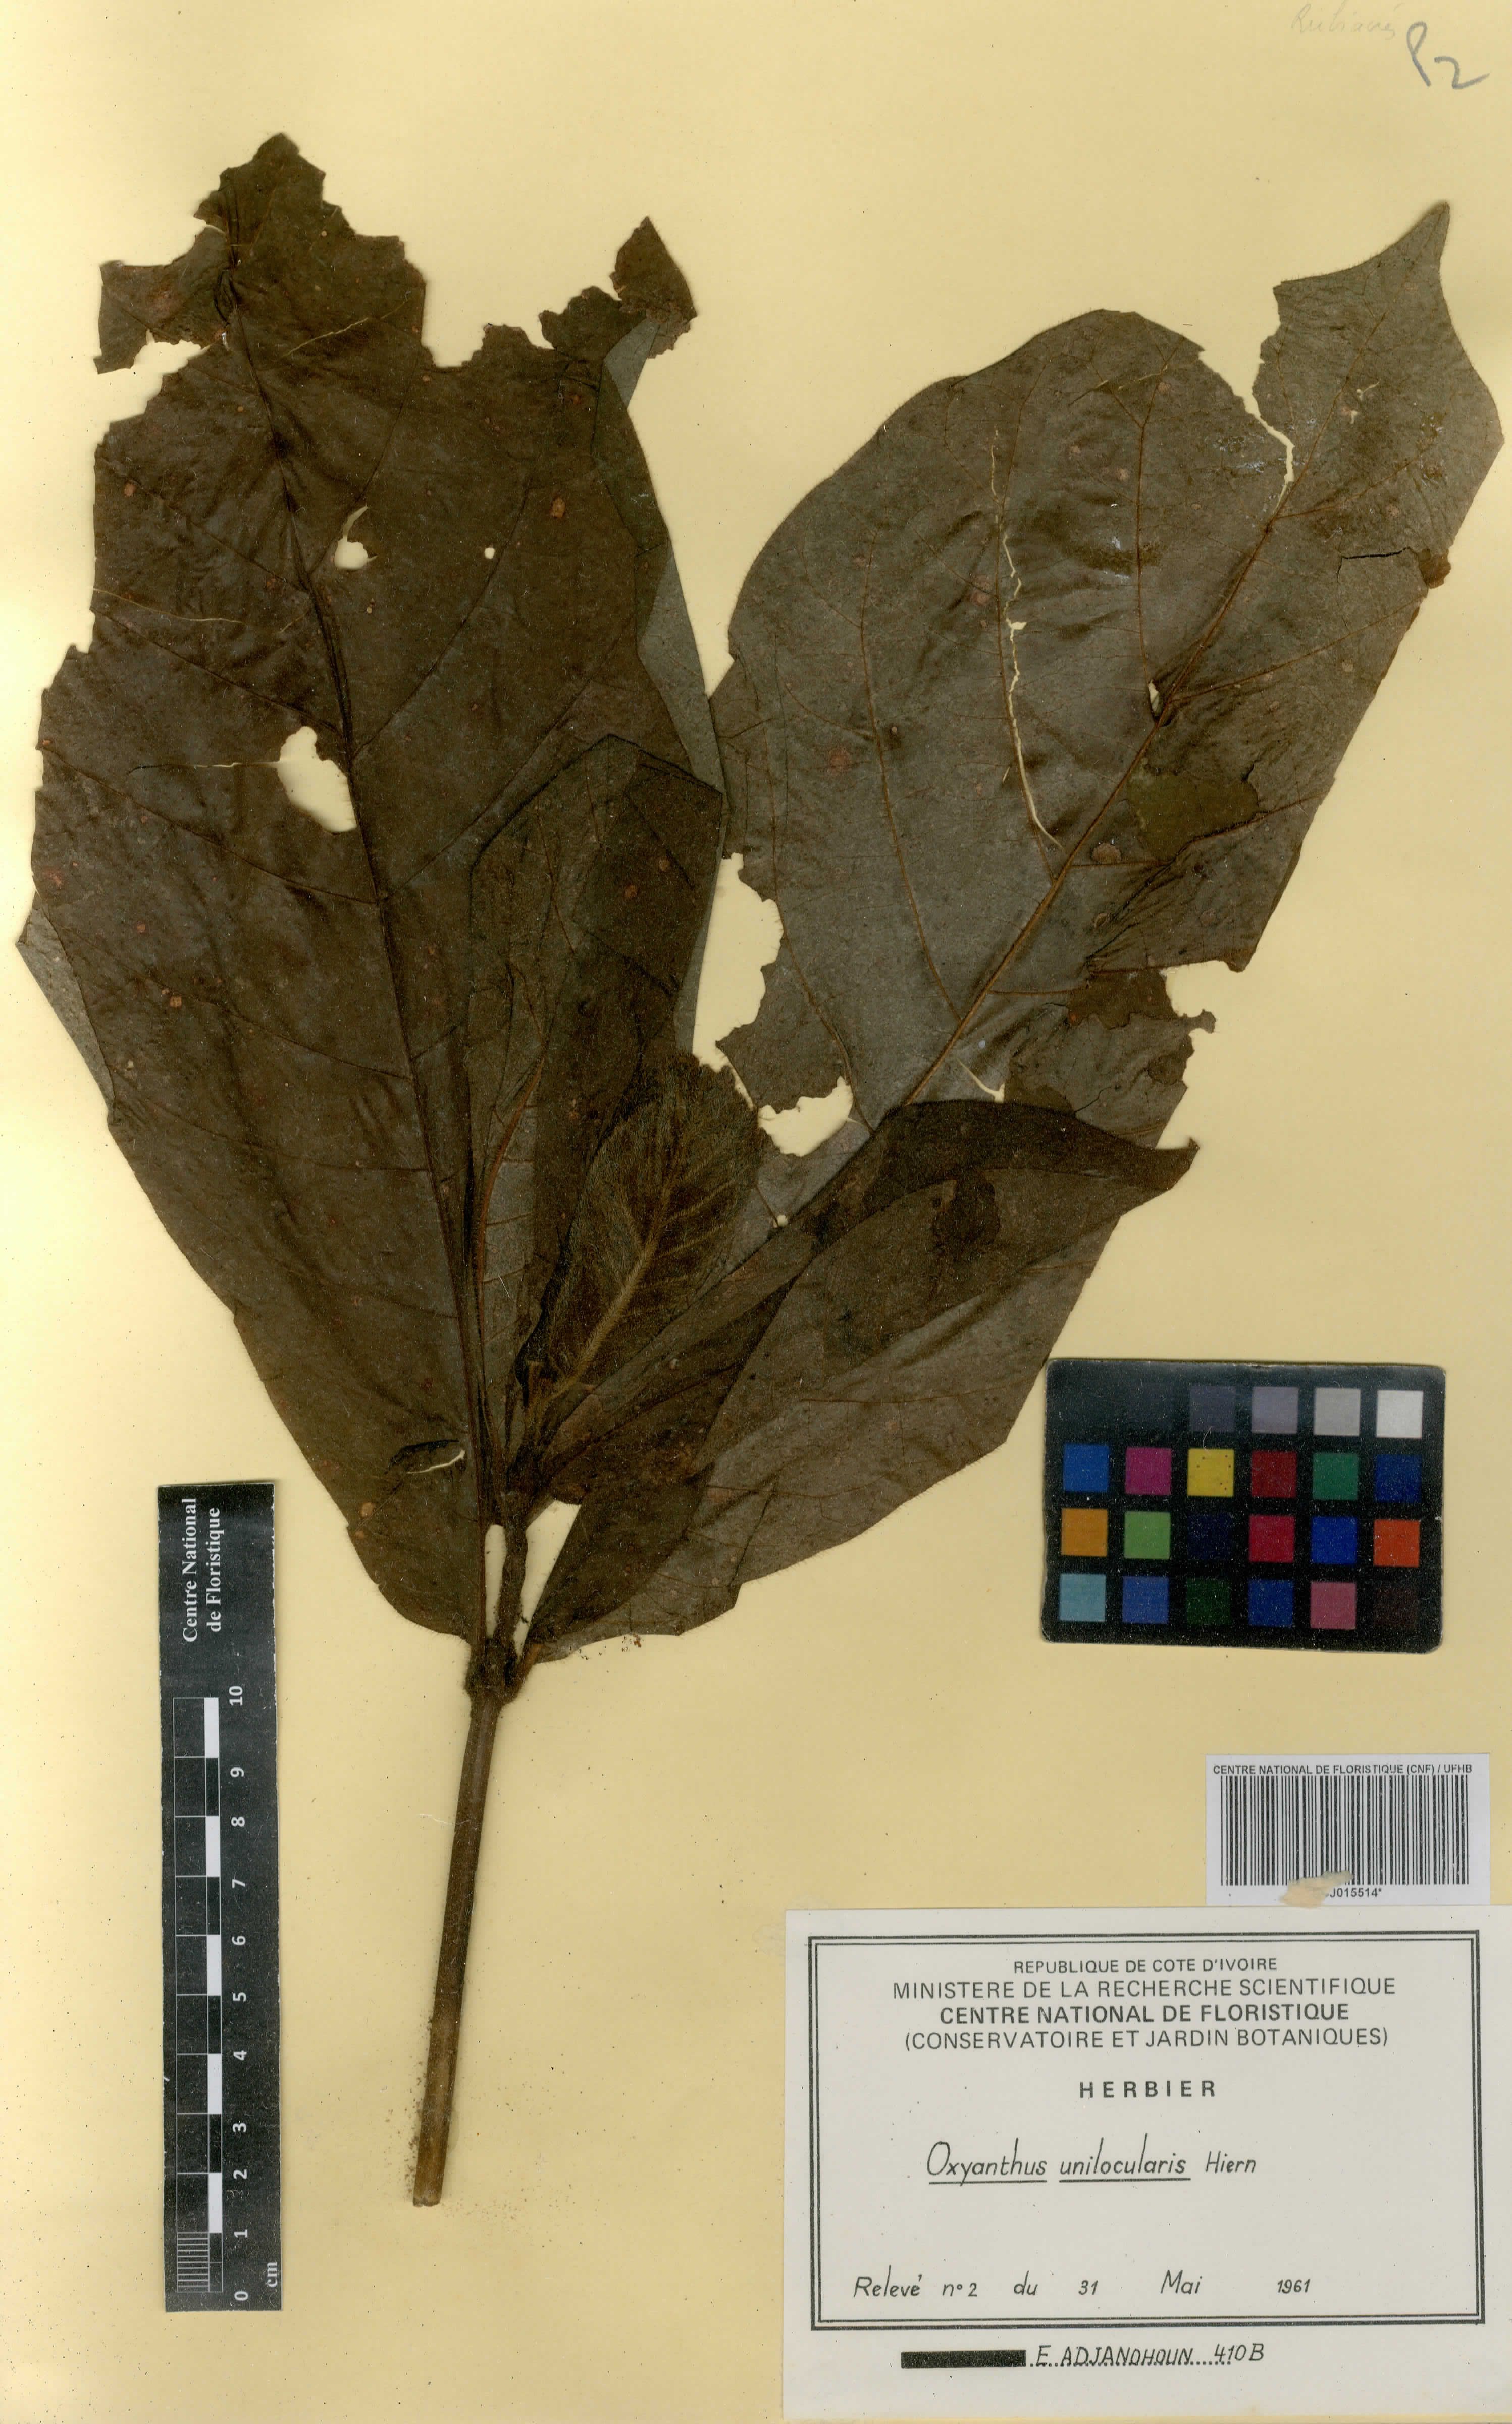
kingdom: Plantae
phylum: Tracheophyta
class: Magnoliopsida
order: Gentianales
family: Rubiaceae
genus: Oxyanthus
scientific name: Oxyanthus unilocularis
